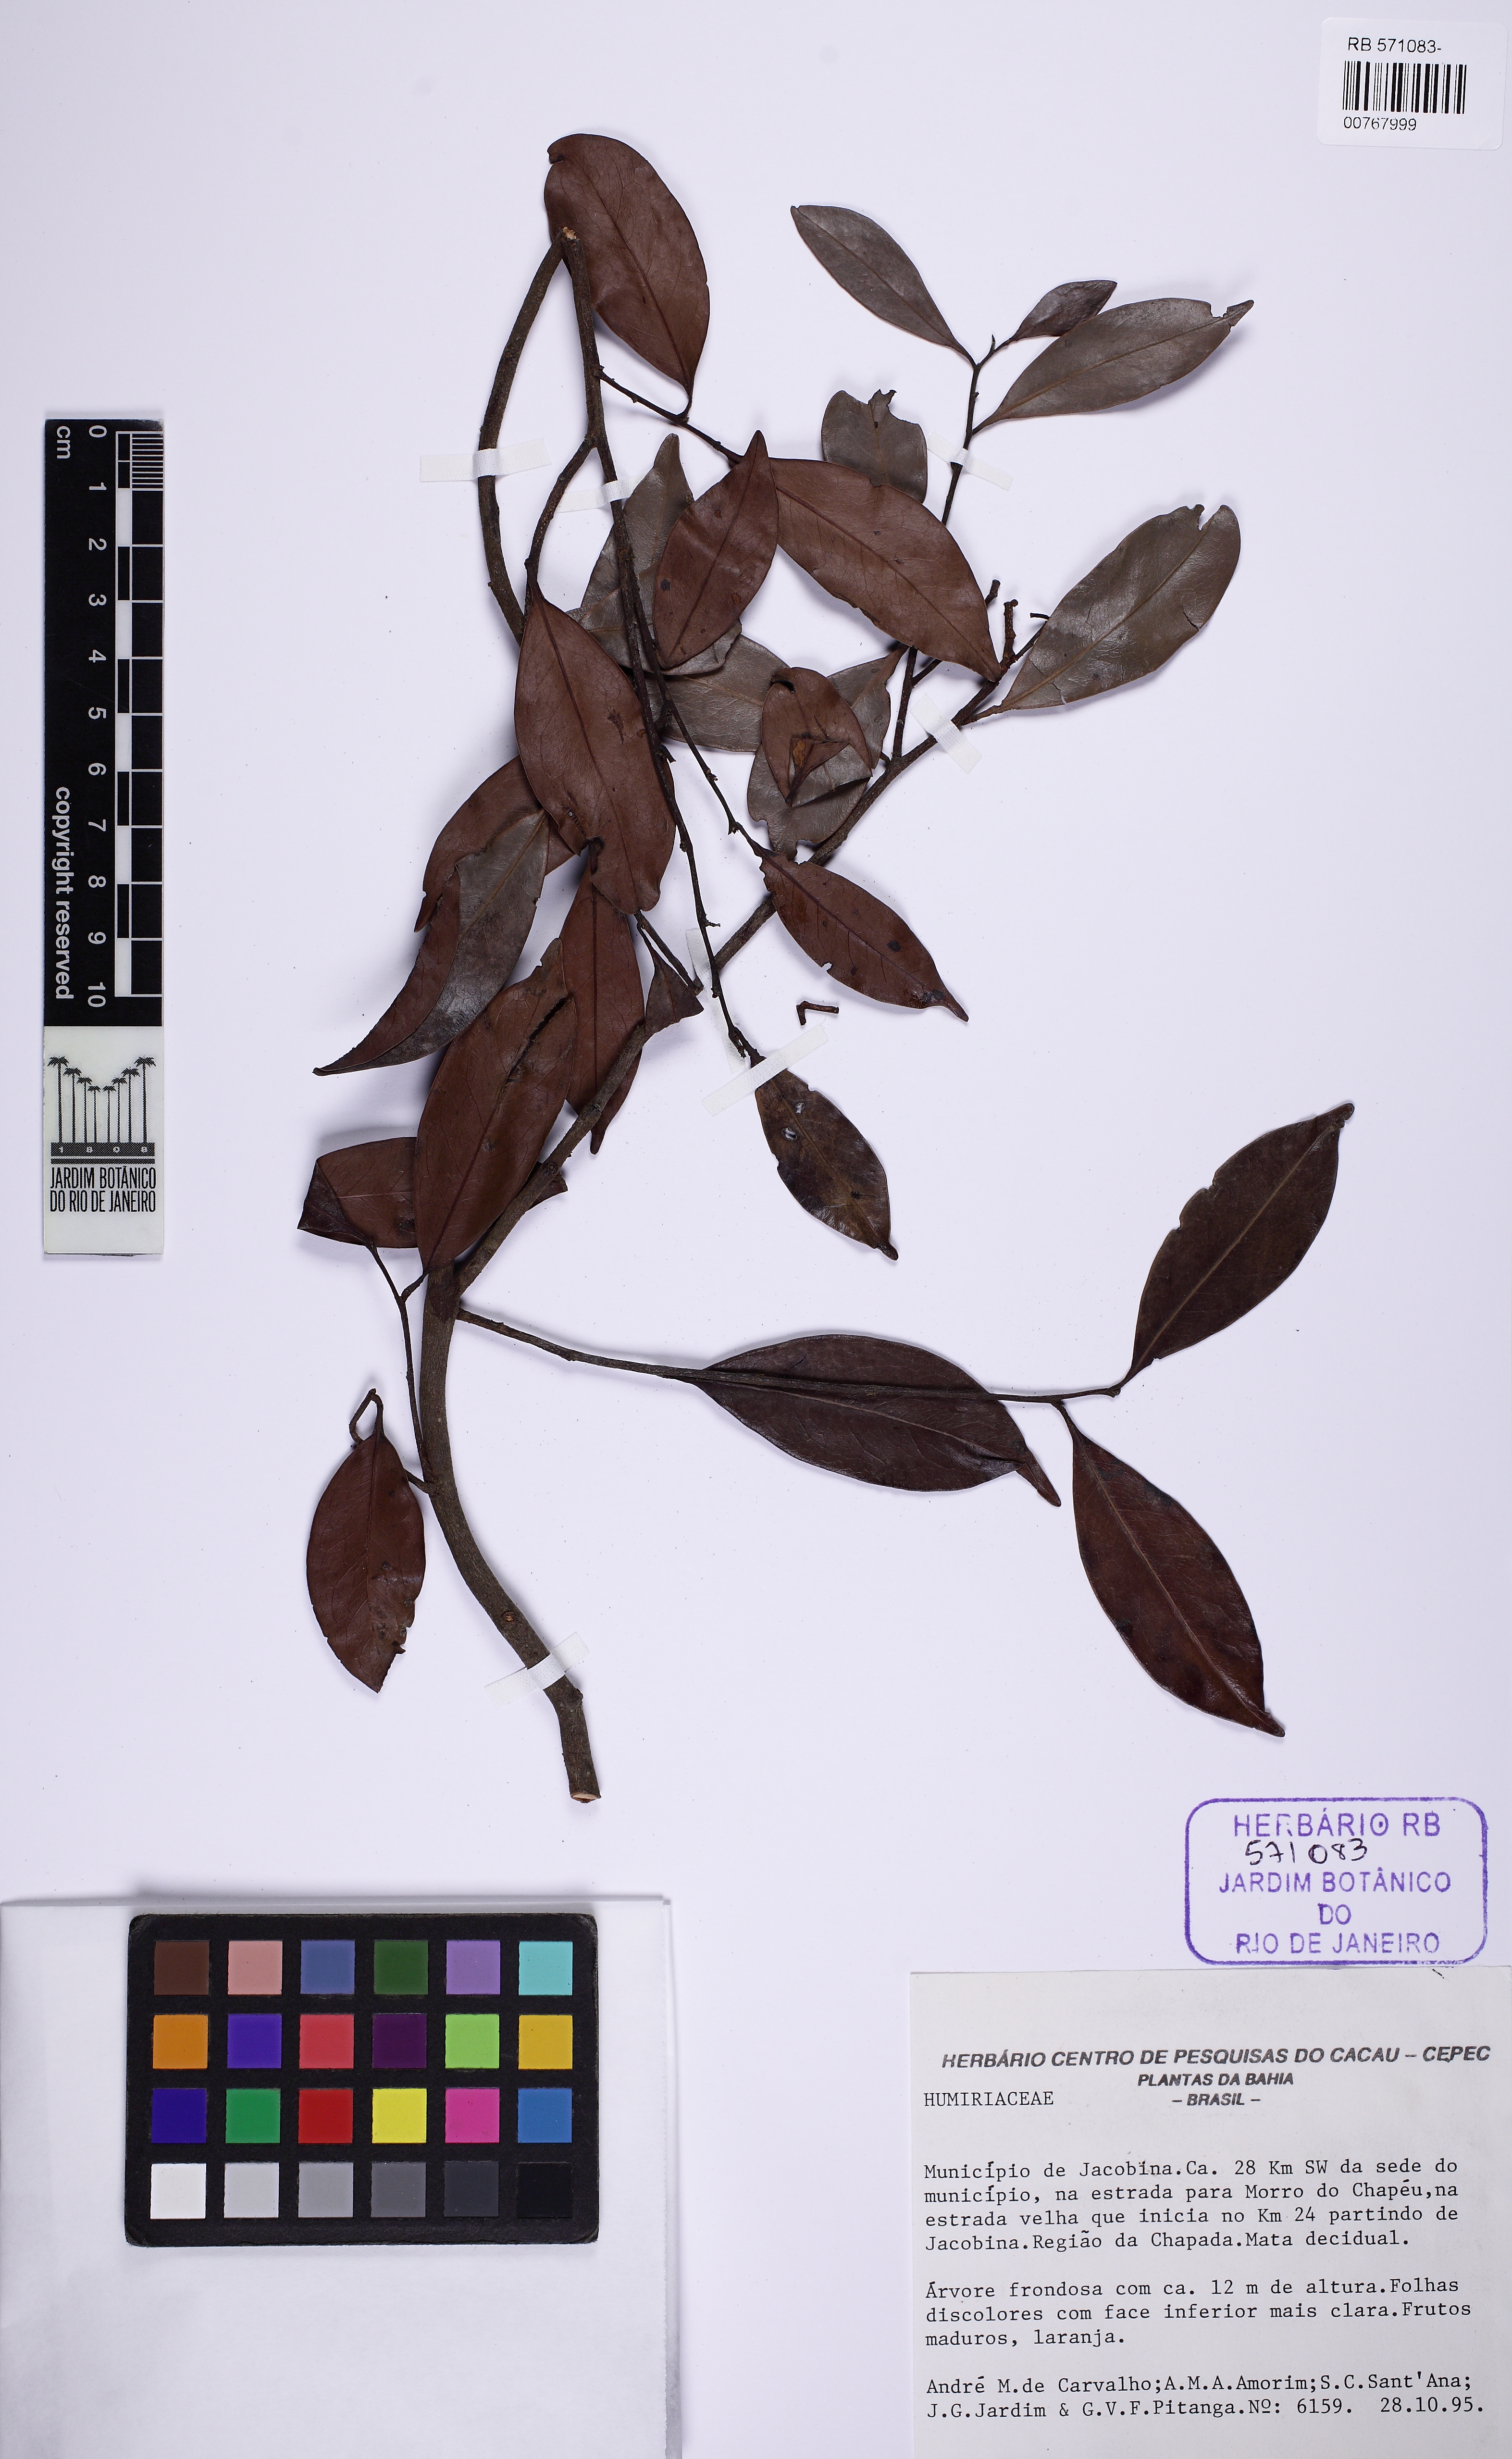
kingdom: Plantae
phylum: Tracheophyta
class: Magnoliopsida
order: Malpighiales
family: Humiriaceae
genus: Vantanea
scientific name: Vantanea compacta
